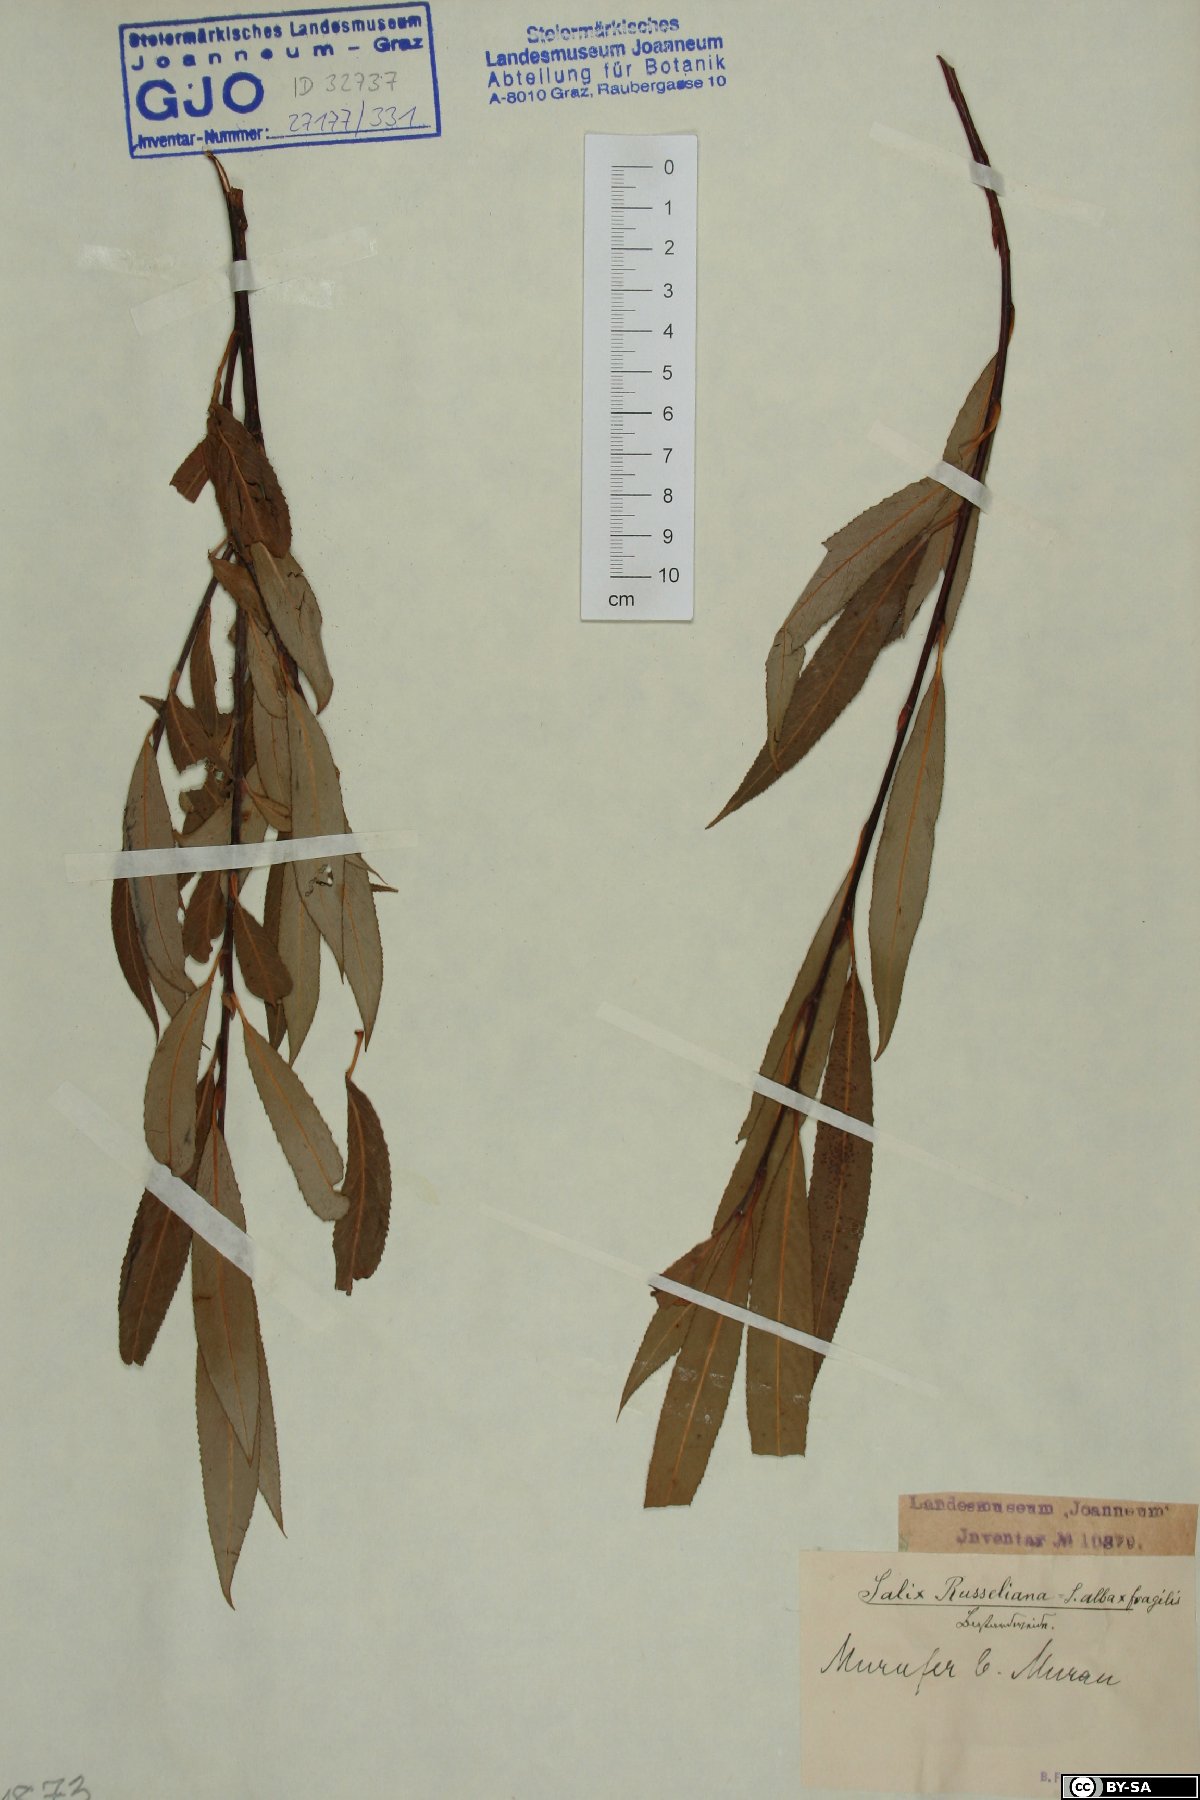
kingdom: Plantae
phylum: Tracheophyta
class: Magnoliopsida
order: Malpighiales
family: Salicaceae
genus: Salix
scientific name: Salix rubens
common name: Hybrid crack willow
